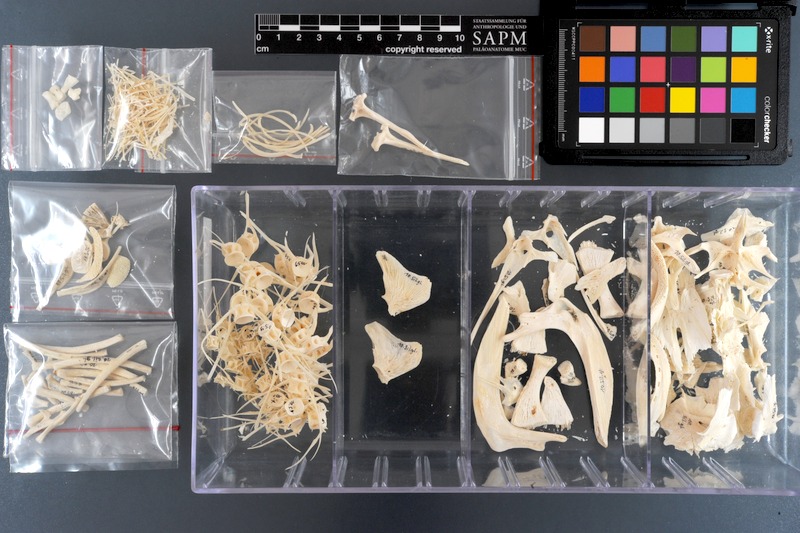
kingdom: Animalia
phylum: Chordata
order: Siluriformes
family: Siluridae
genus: Silurus
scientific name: Silurus glanis
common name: Wels
